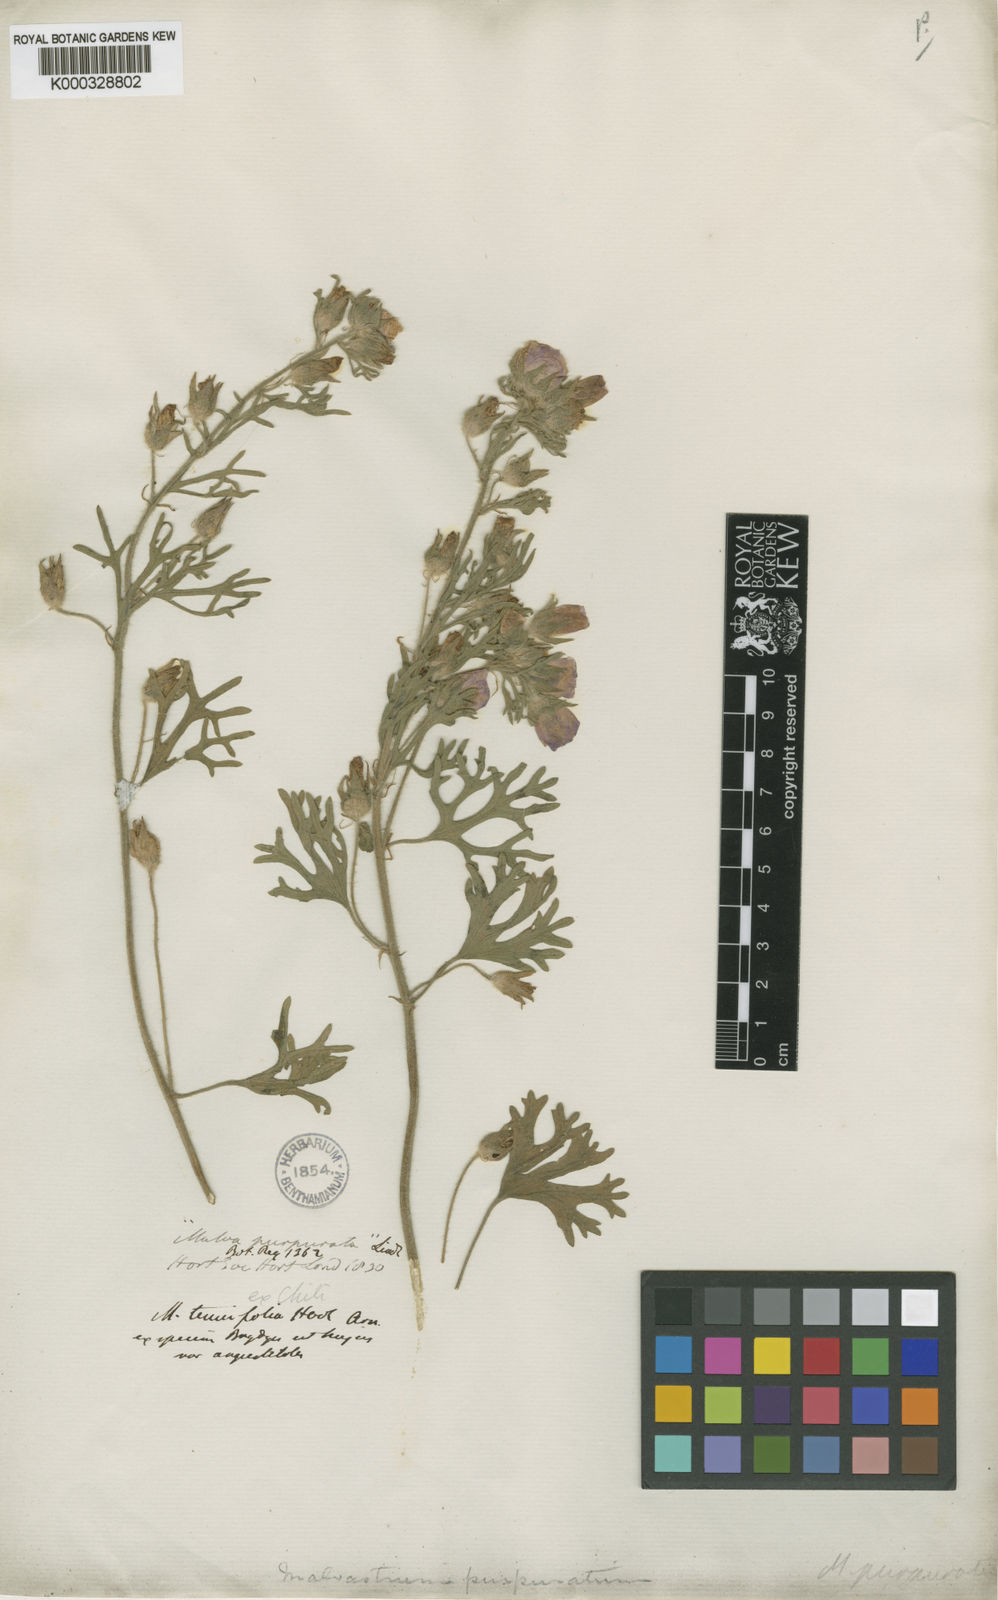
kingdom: Plantae
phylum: Tracheophyta
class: Magnoliopsida
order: Malvales
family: Malvaceae
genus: Sphaeralcea
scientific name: Sphaeralcea purpurata
